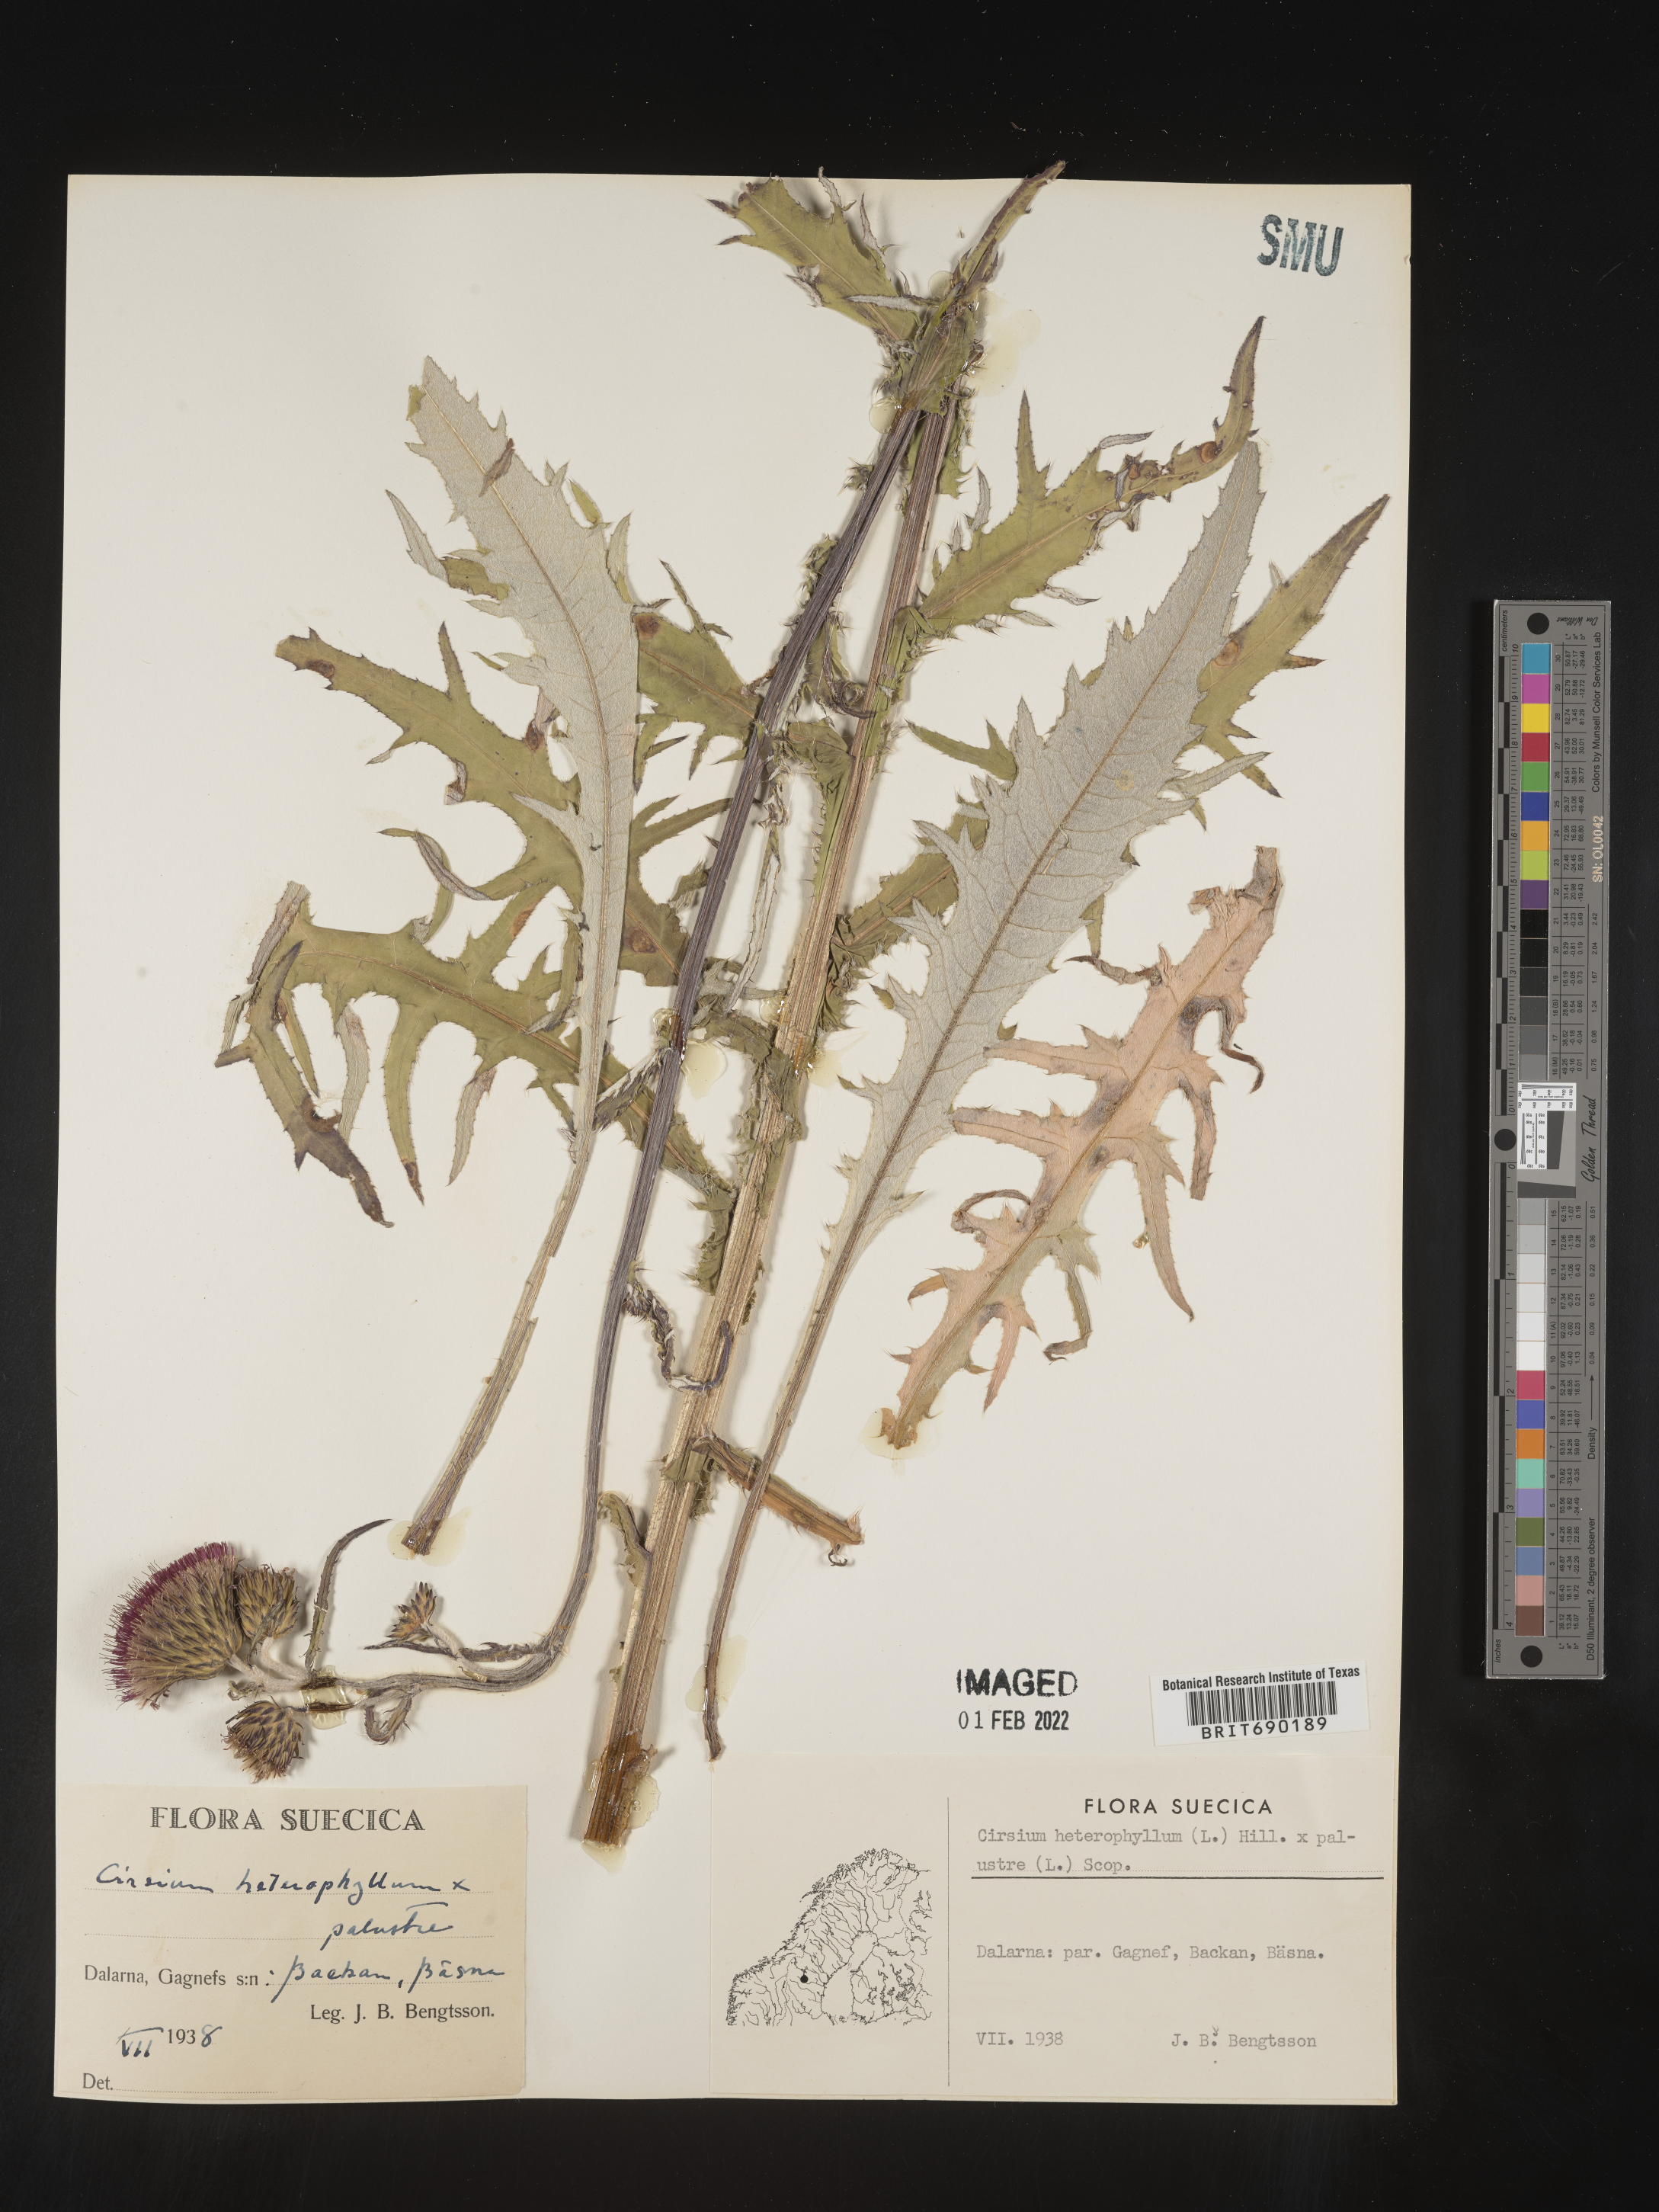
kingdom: Plantae
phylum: Tracheophyta
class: Magnoliopsida
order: Asterales
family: Asteraceae
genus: Cirsium
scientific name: Cirsium
